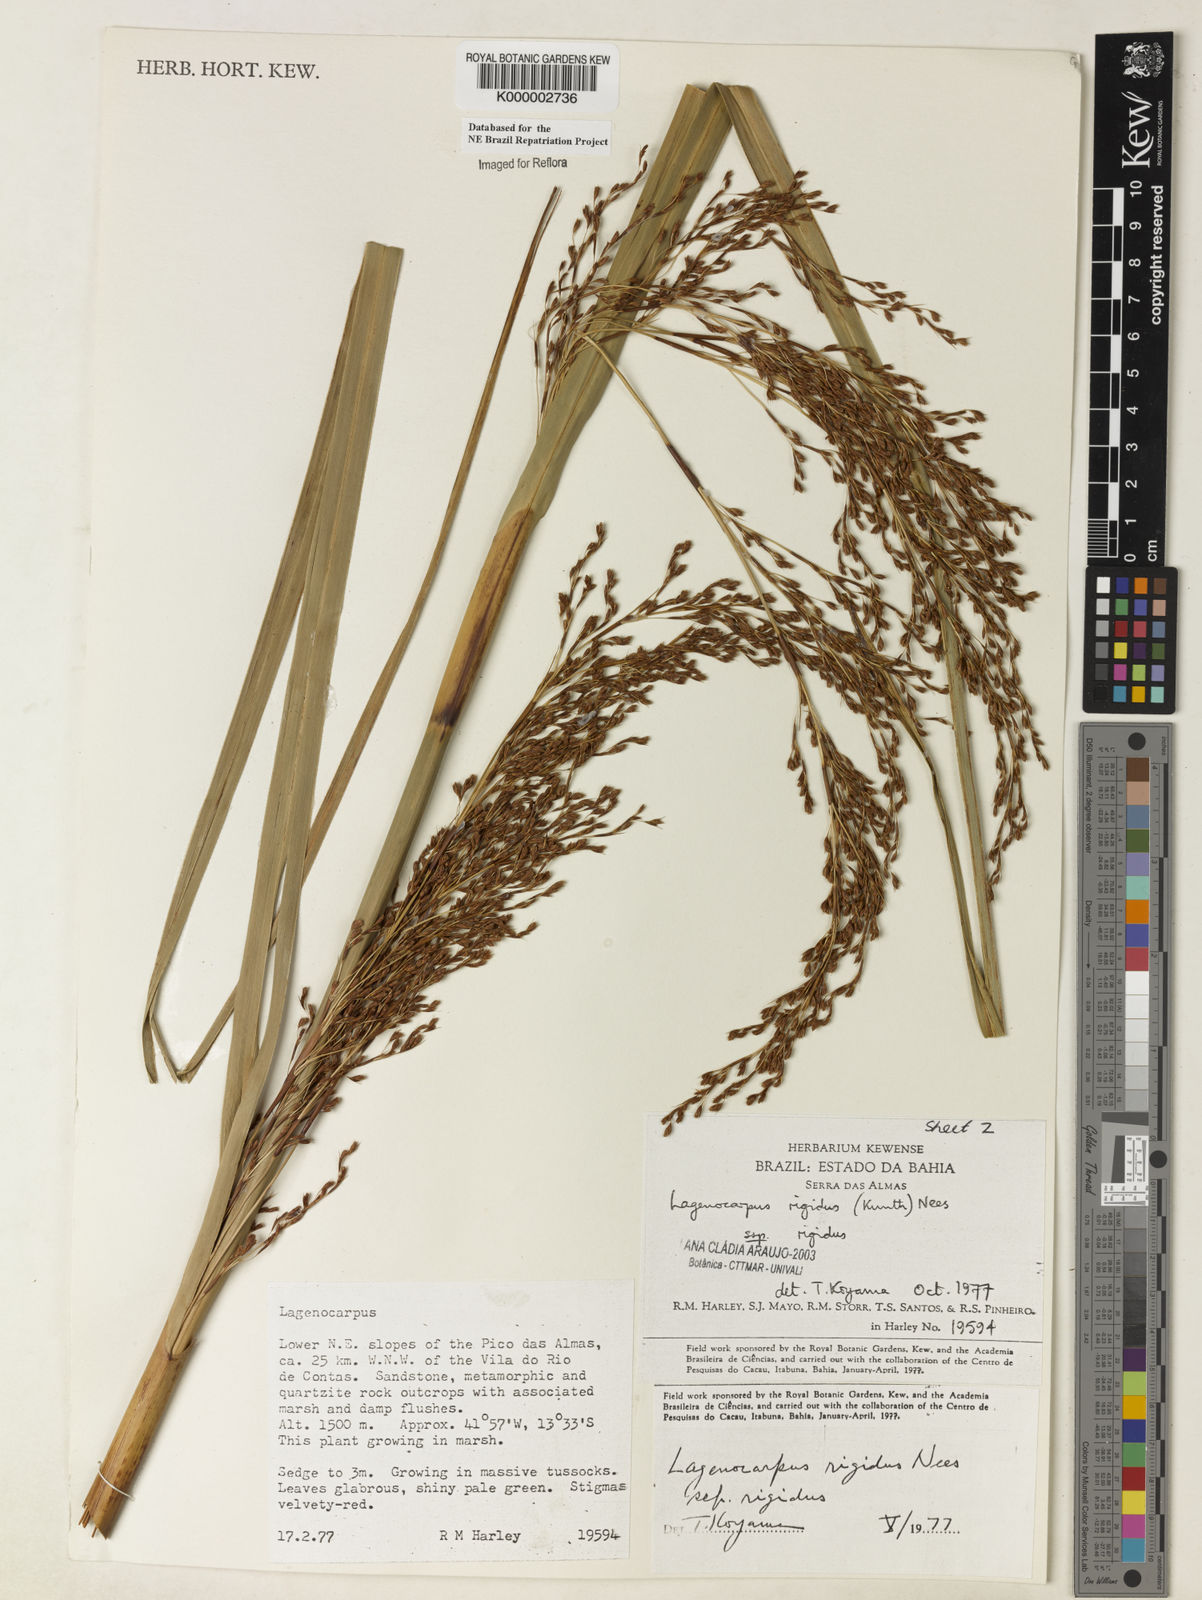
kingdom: Plantae
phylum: Tracheophyta
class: Liliopsida
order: Poales
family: Cyperaceae
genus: Lagenocarpus
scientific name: Lagenocarpus rigidus
